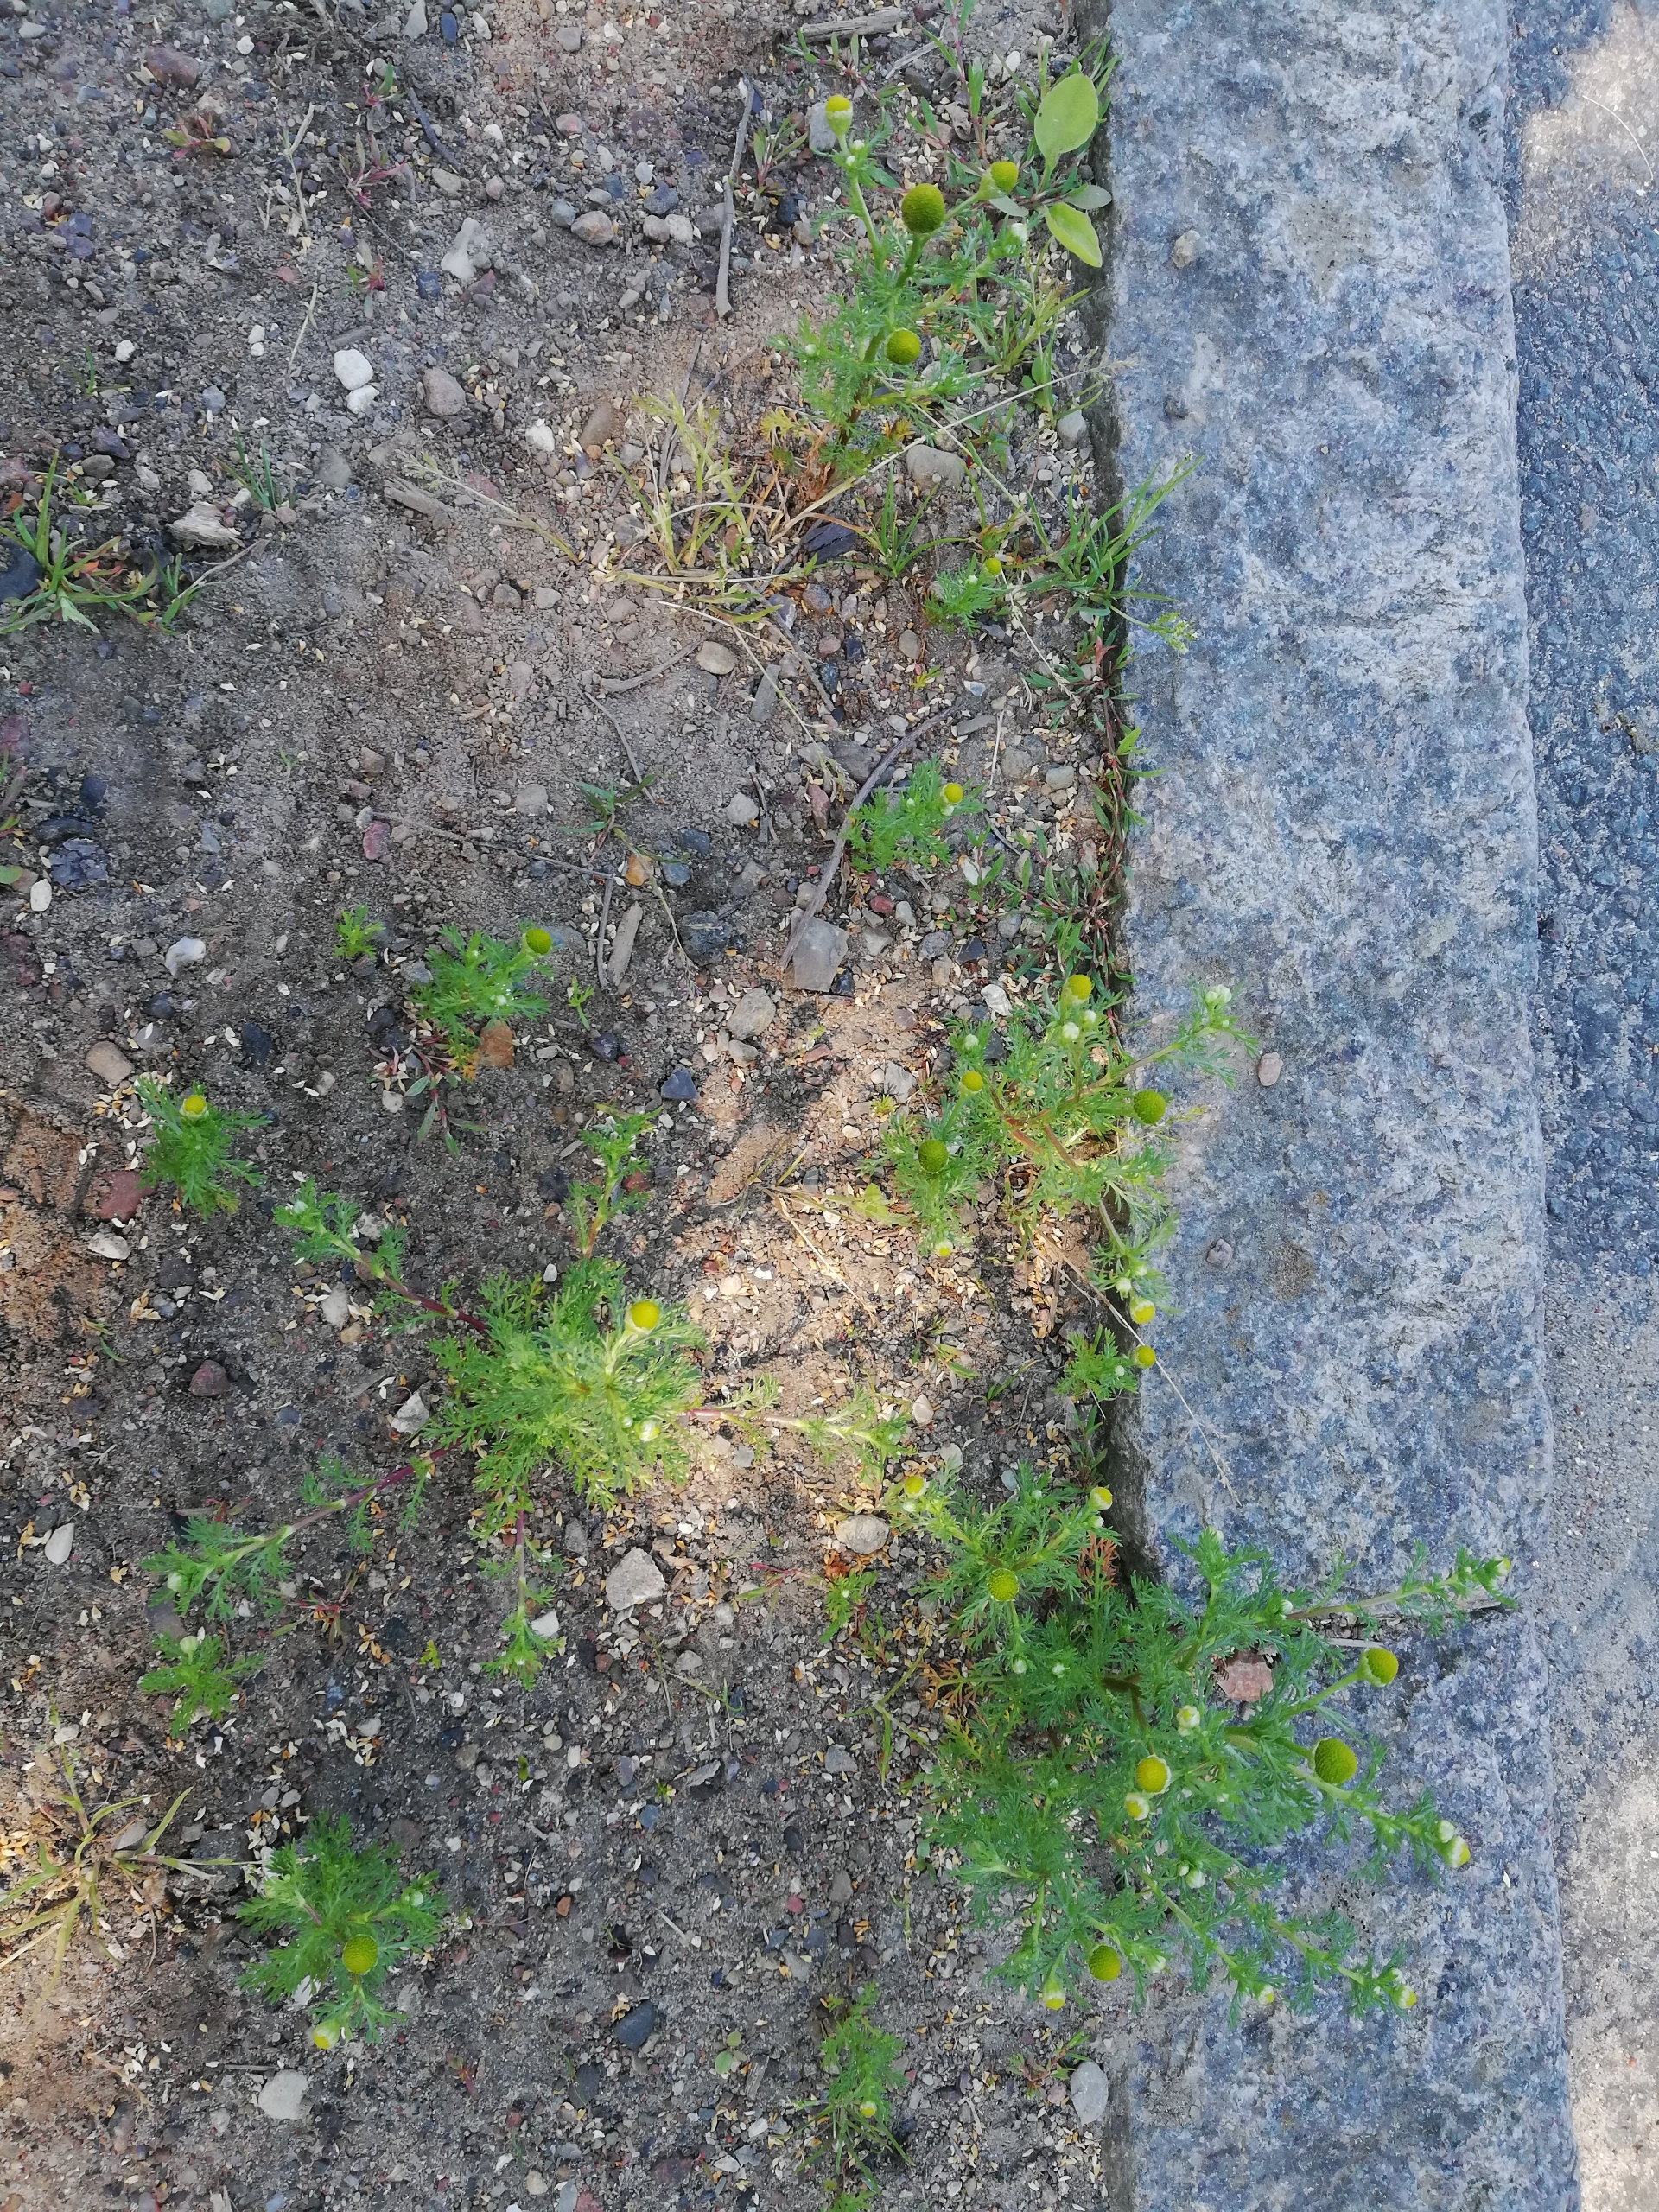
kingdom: Plantae
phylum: Tracheophyta
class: Magnoliopsida
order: Asterales
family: Asteraceae
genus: Matricaria
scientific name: Matricaria discoidea
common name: Skive-kamille
